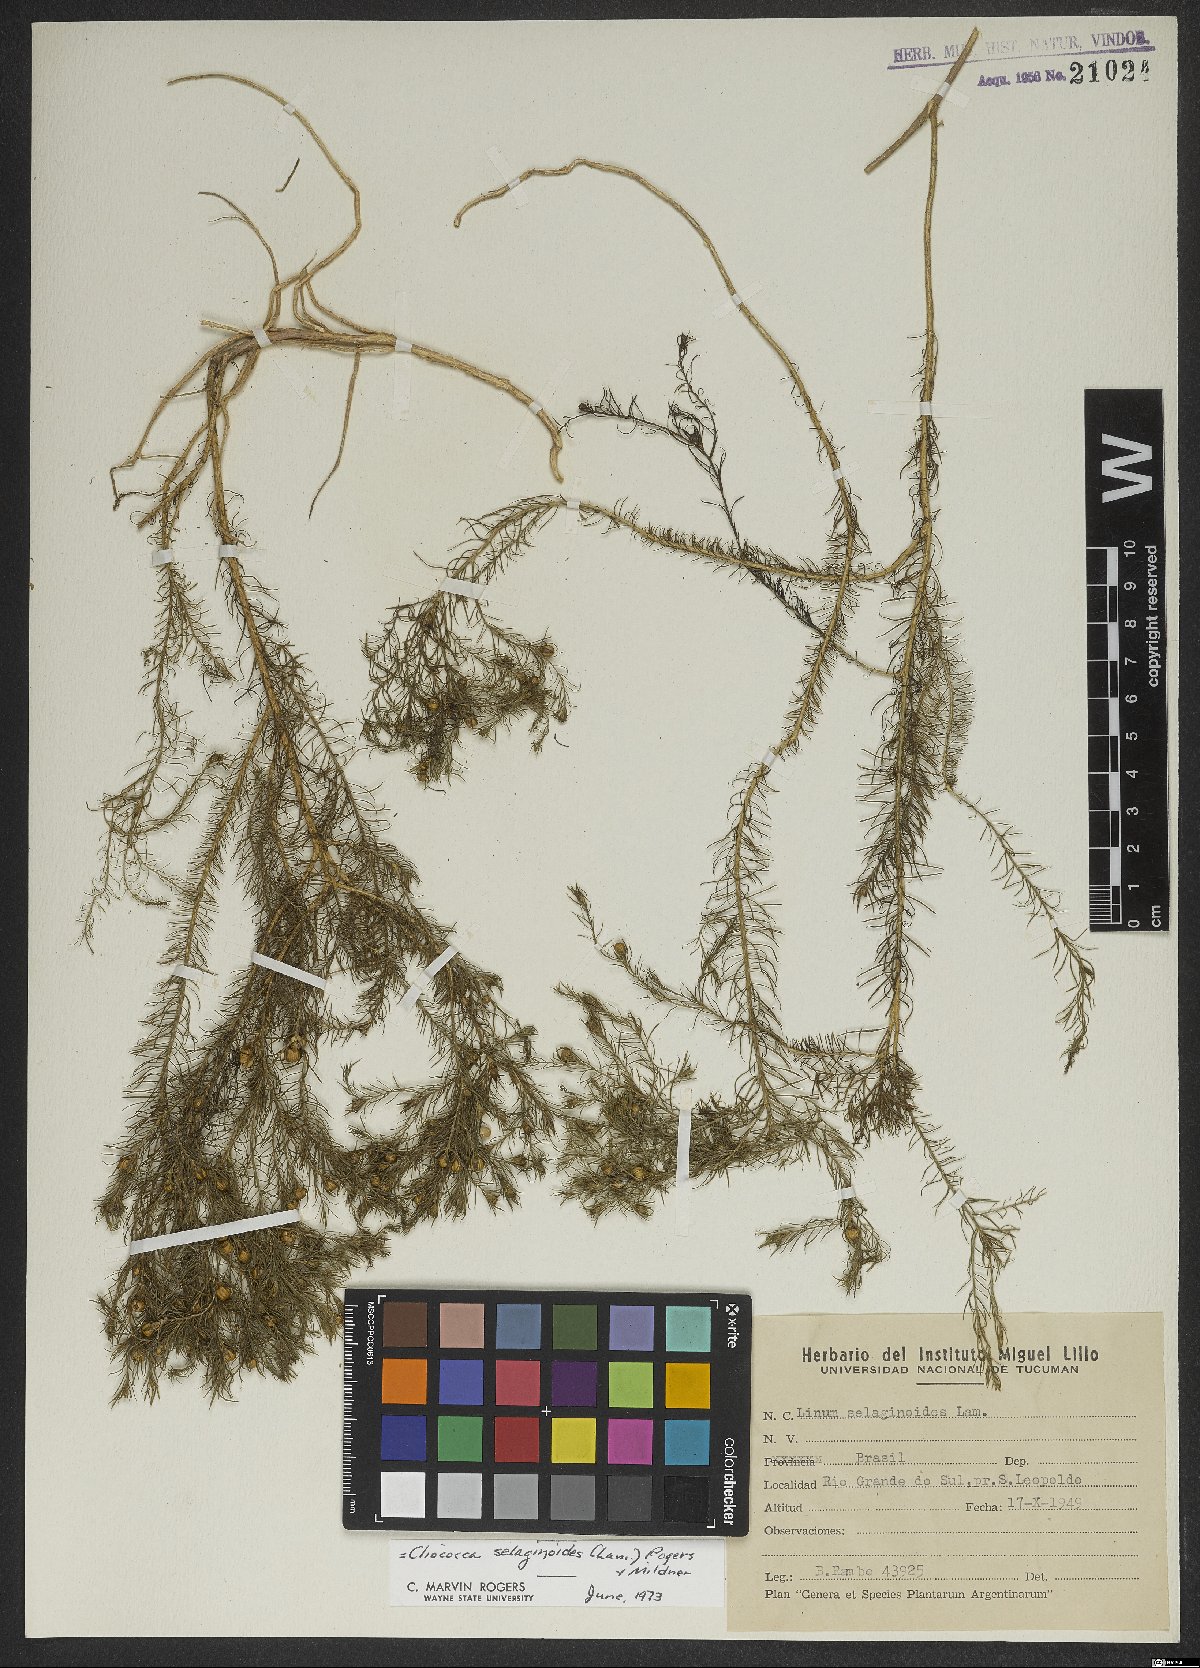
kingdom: Plantae
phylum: Tracheophyta
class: Magnoliopsida
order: Malpighiales
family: Linaceae
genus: Cliococca
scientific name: Cliococca selaginoides
